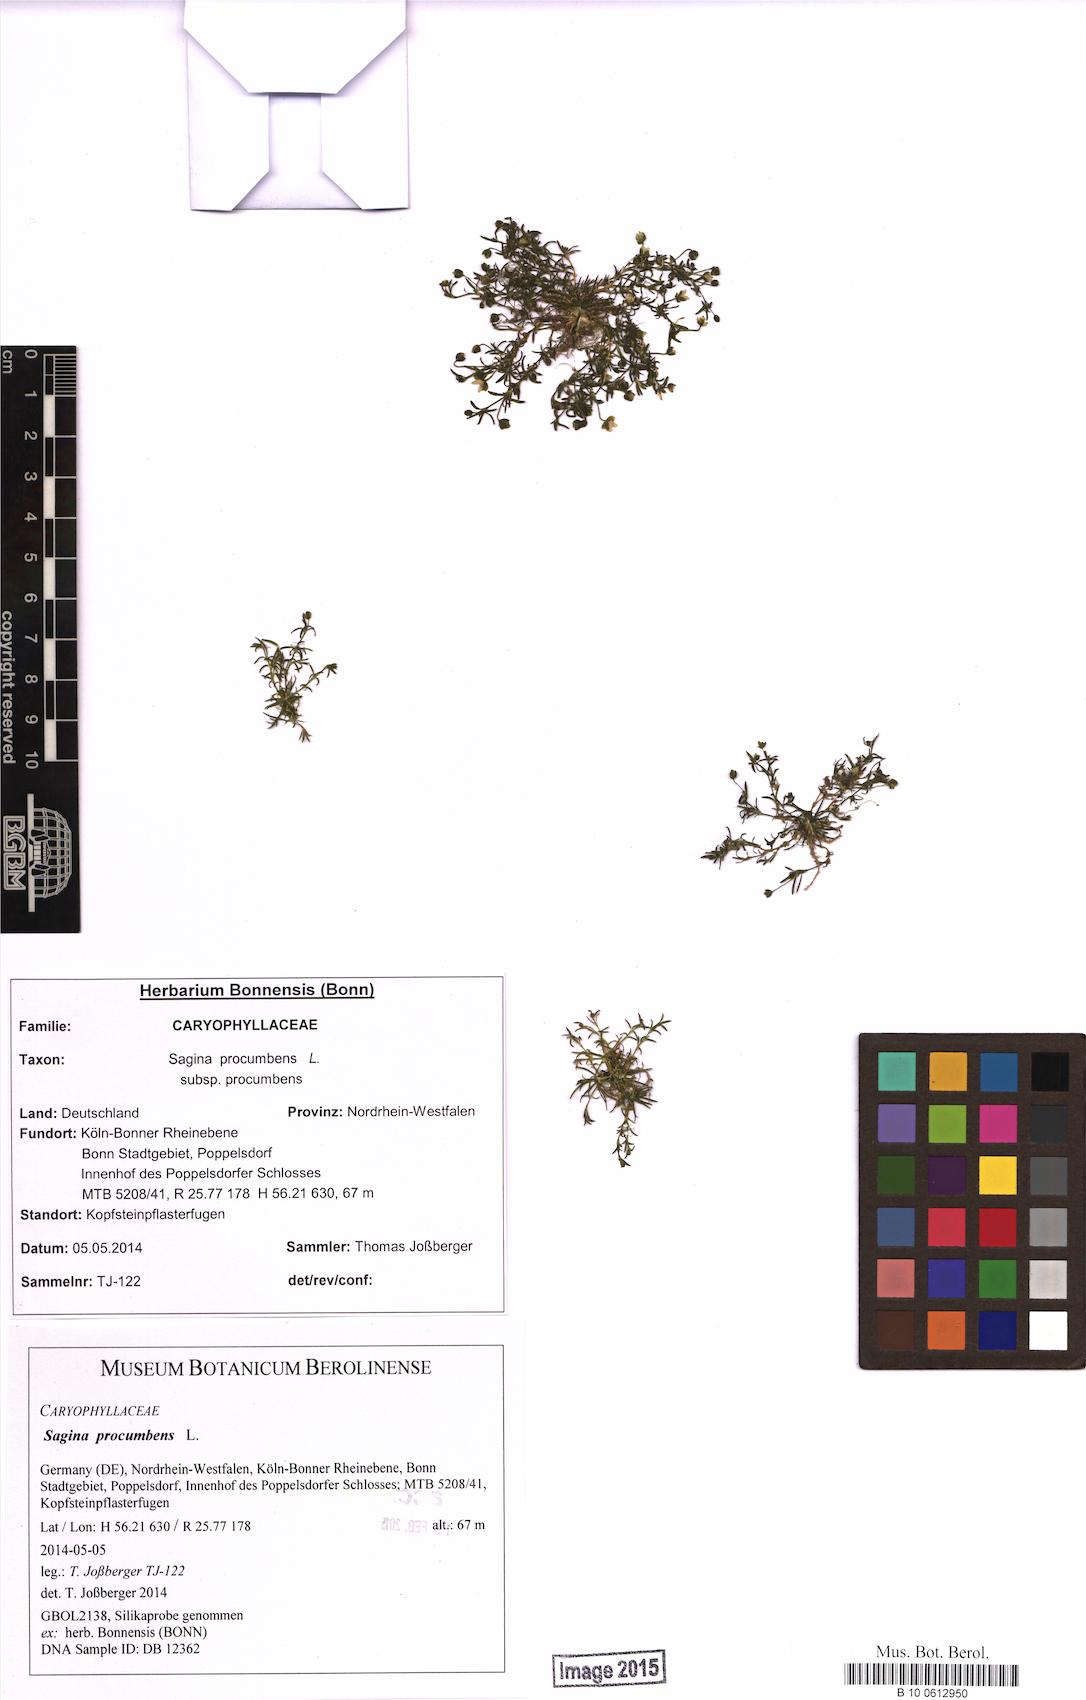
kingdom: Plantae
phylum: Tracheophyta
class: Magnoliopsida
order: Caryophyllales
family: Caryophyllaceae
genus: Sagina
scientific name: Sagina procumbens
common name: Procumbent pearlwort
